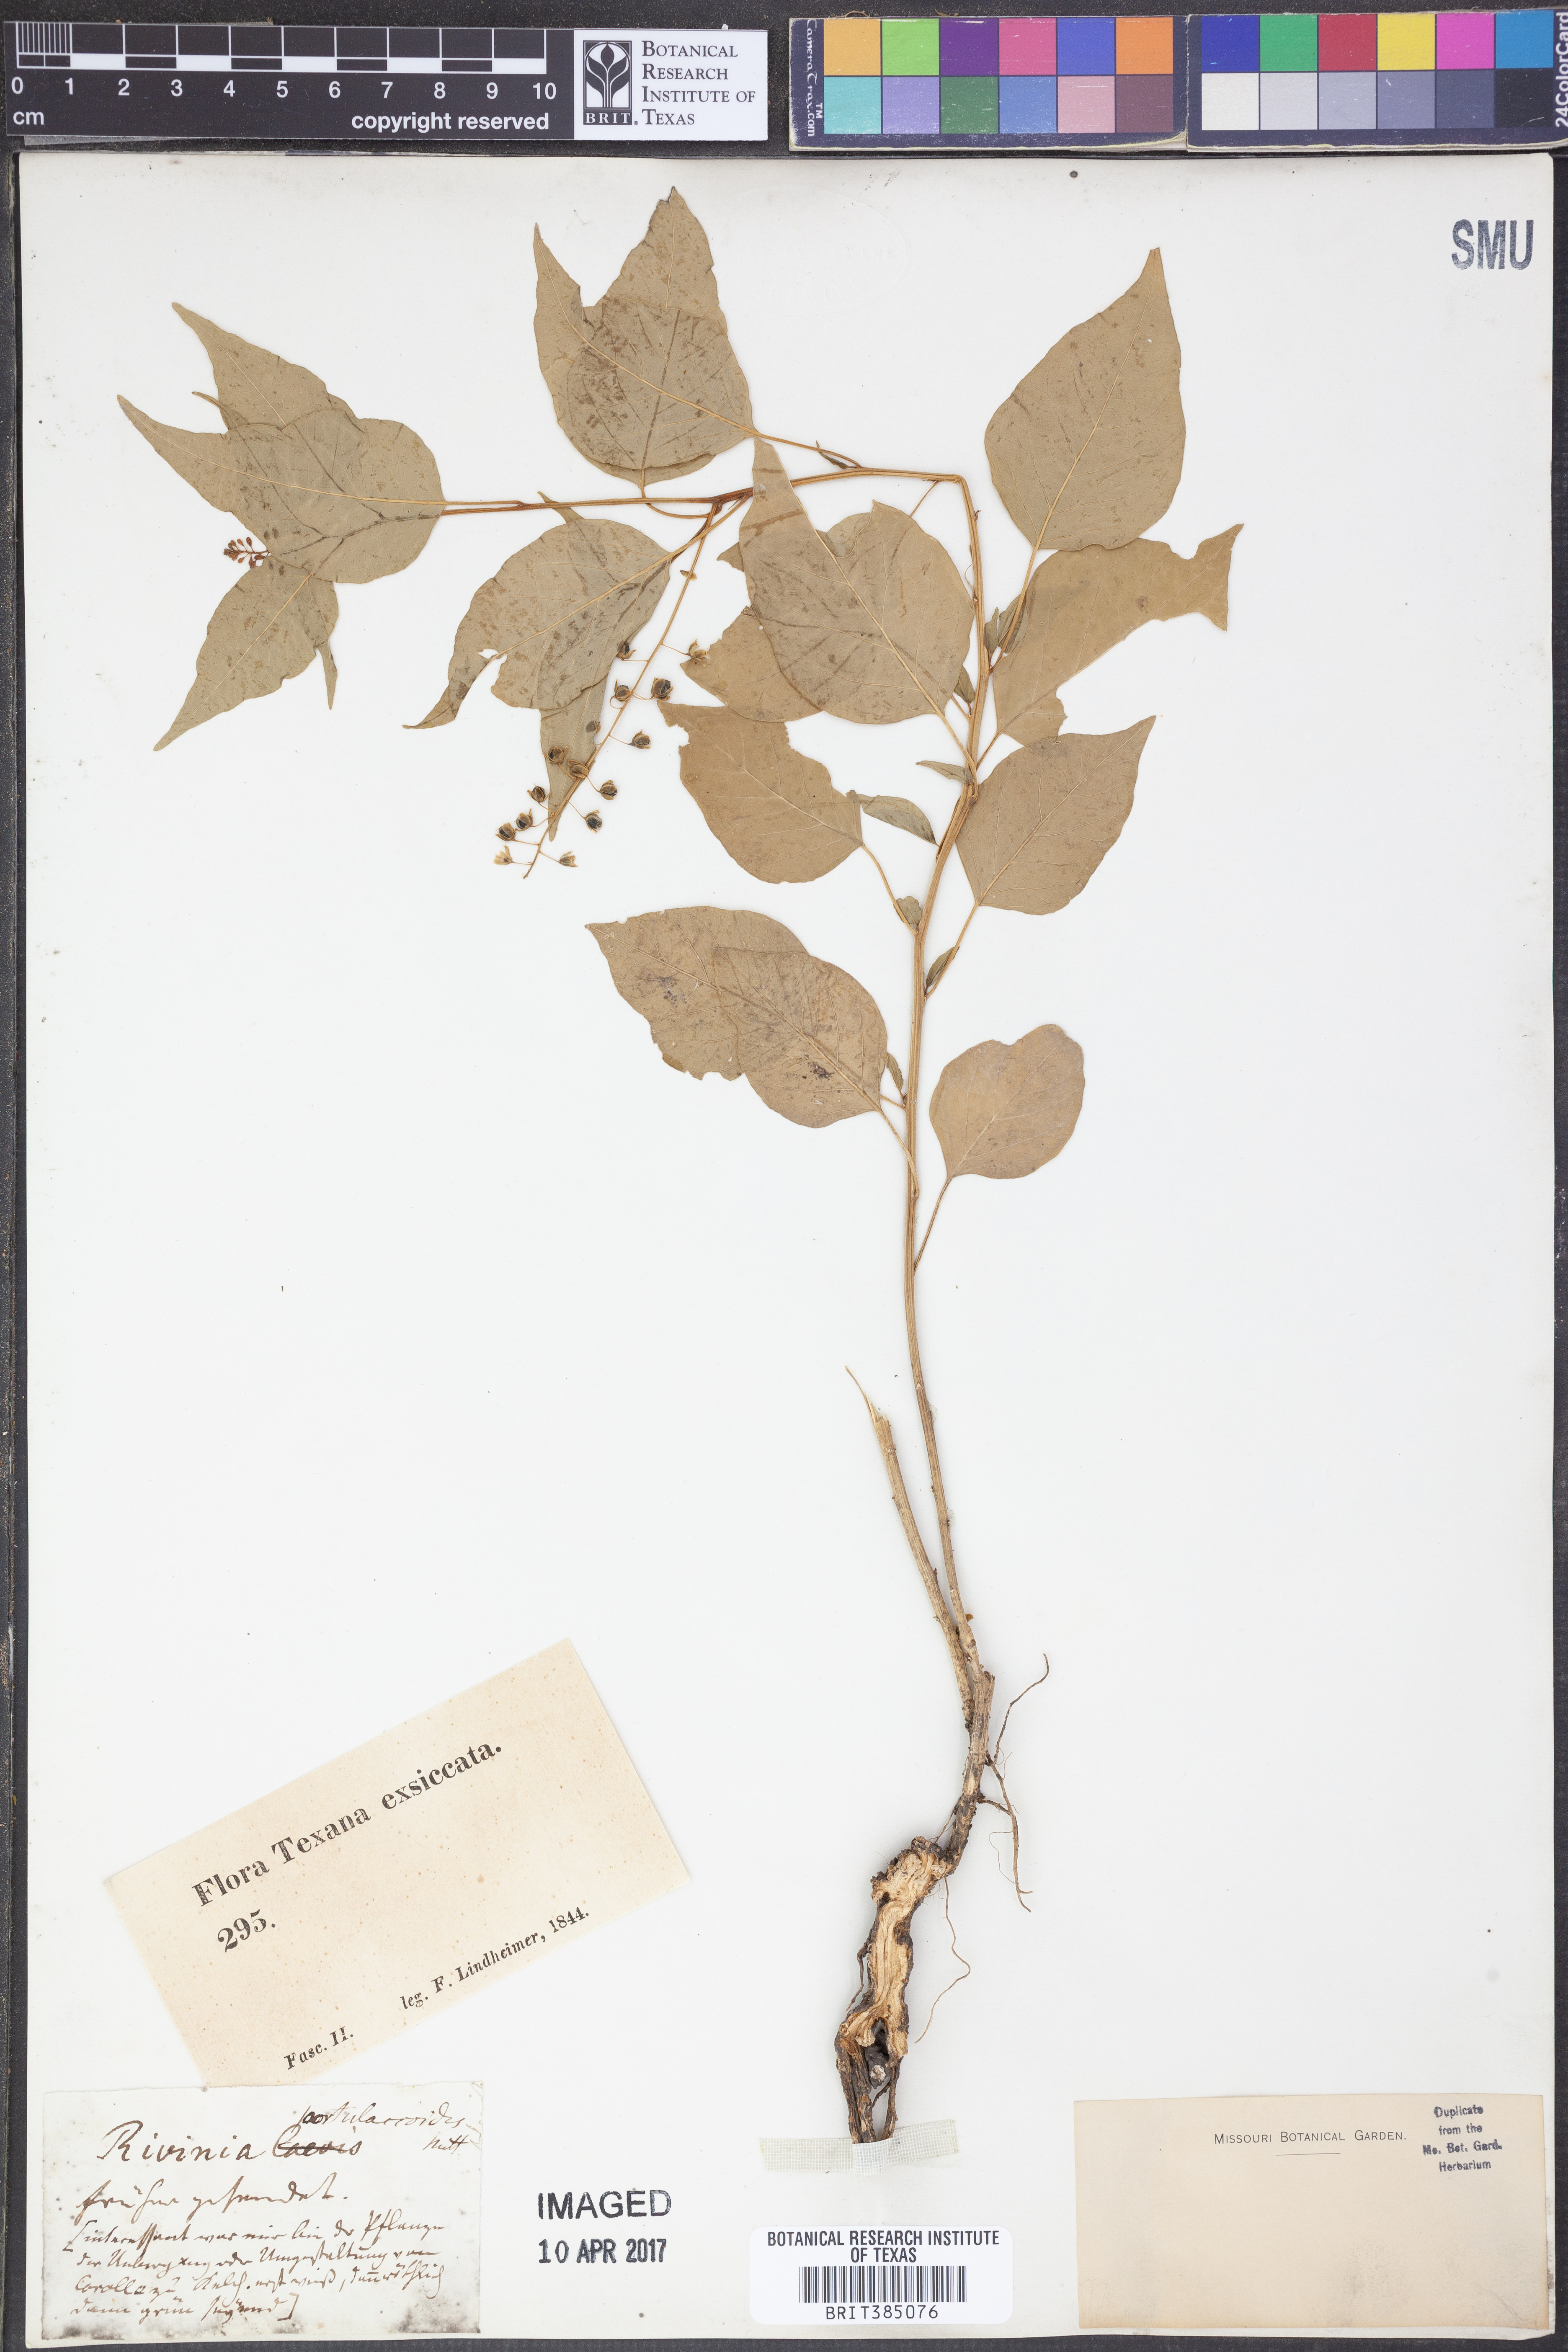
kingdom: Plantae
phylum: Tracheophyta
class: Magnoliopsida
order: Caryophyllales
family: Phytolaccaceae
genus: Rivina
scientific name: Rivina humilis
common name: Rougeplant
